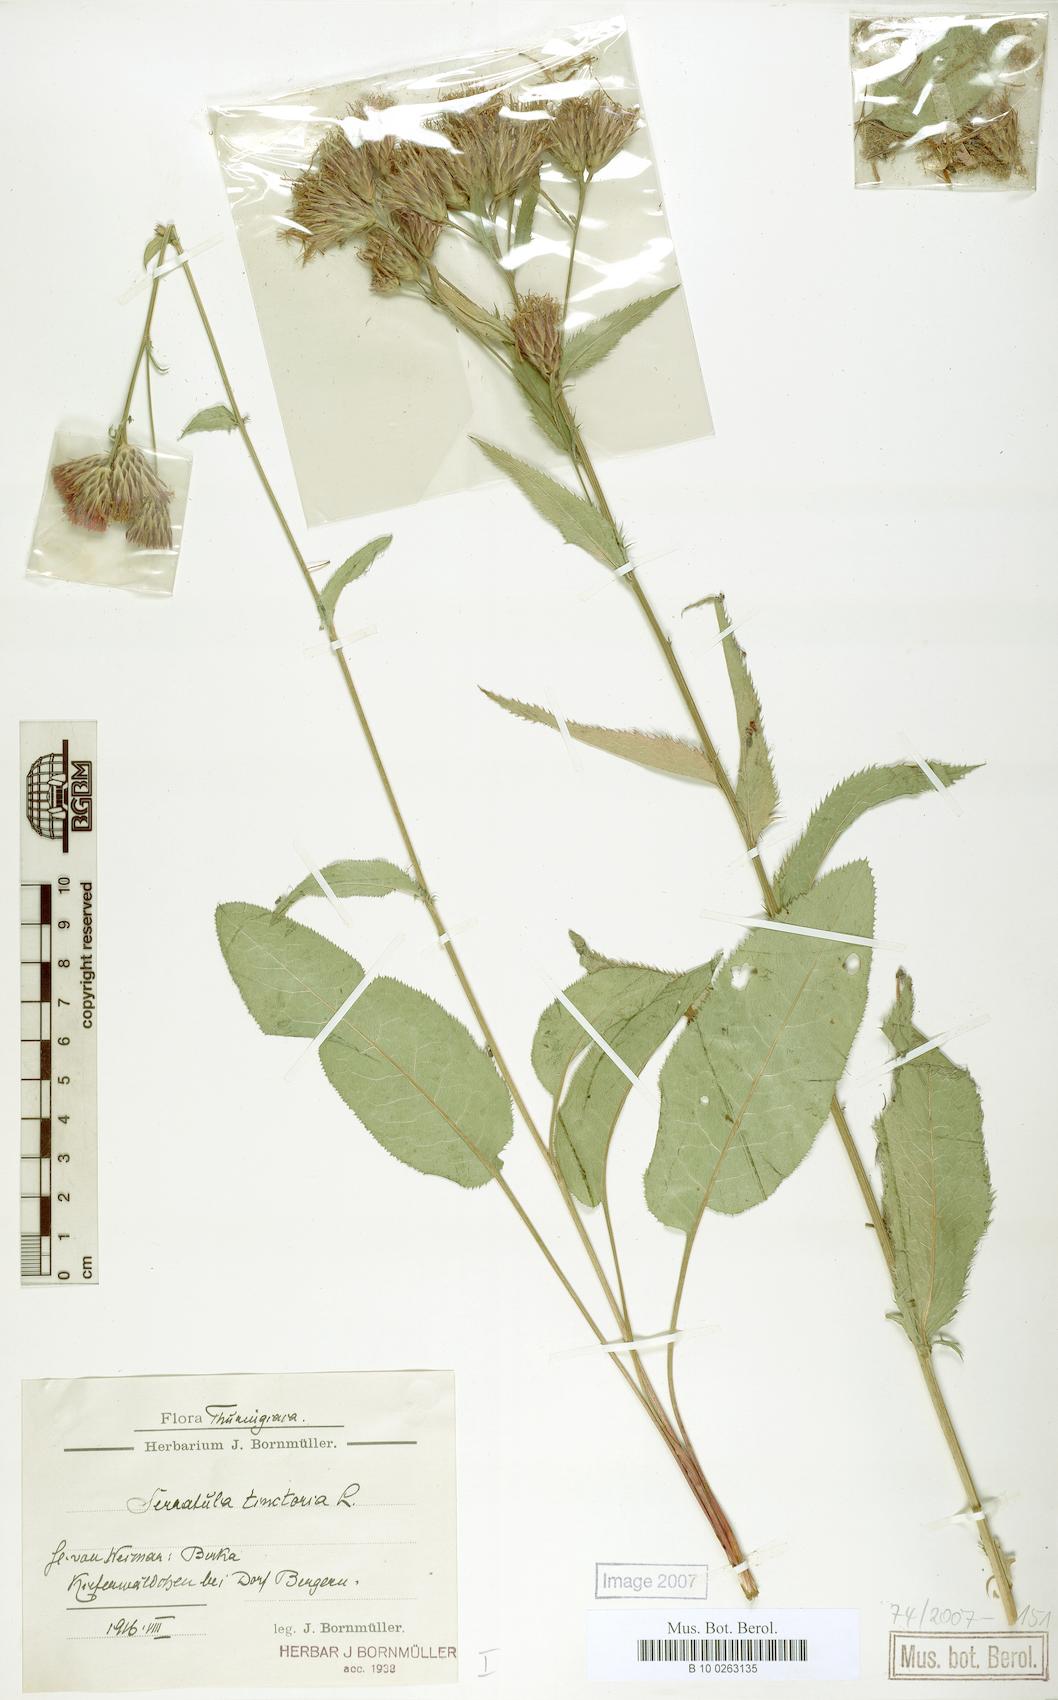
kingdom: Plantae
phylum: Tracheophyta
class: Magnoliopsida
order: Asterales
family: Asteraceae
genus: Serratula
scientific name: Serratula tinctoria
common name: Saw-wort
